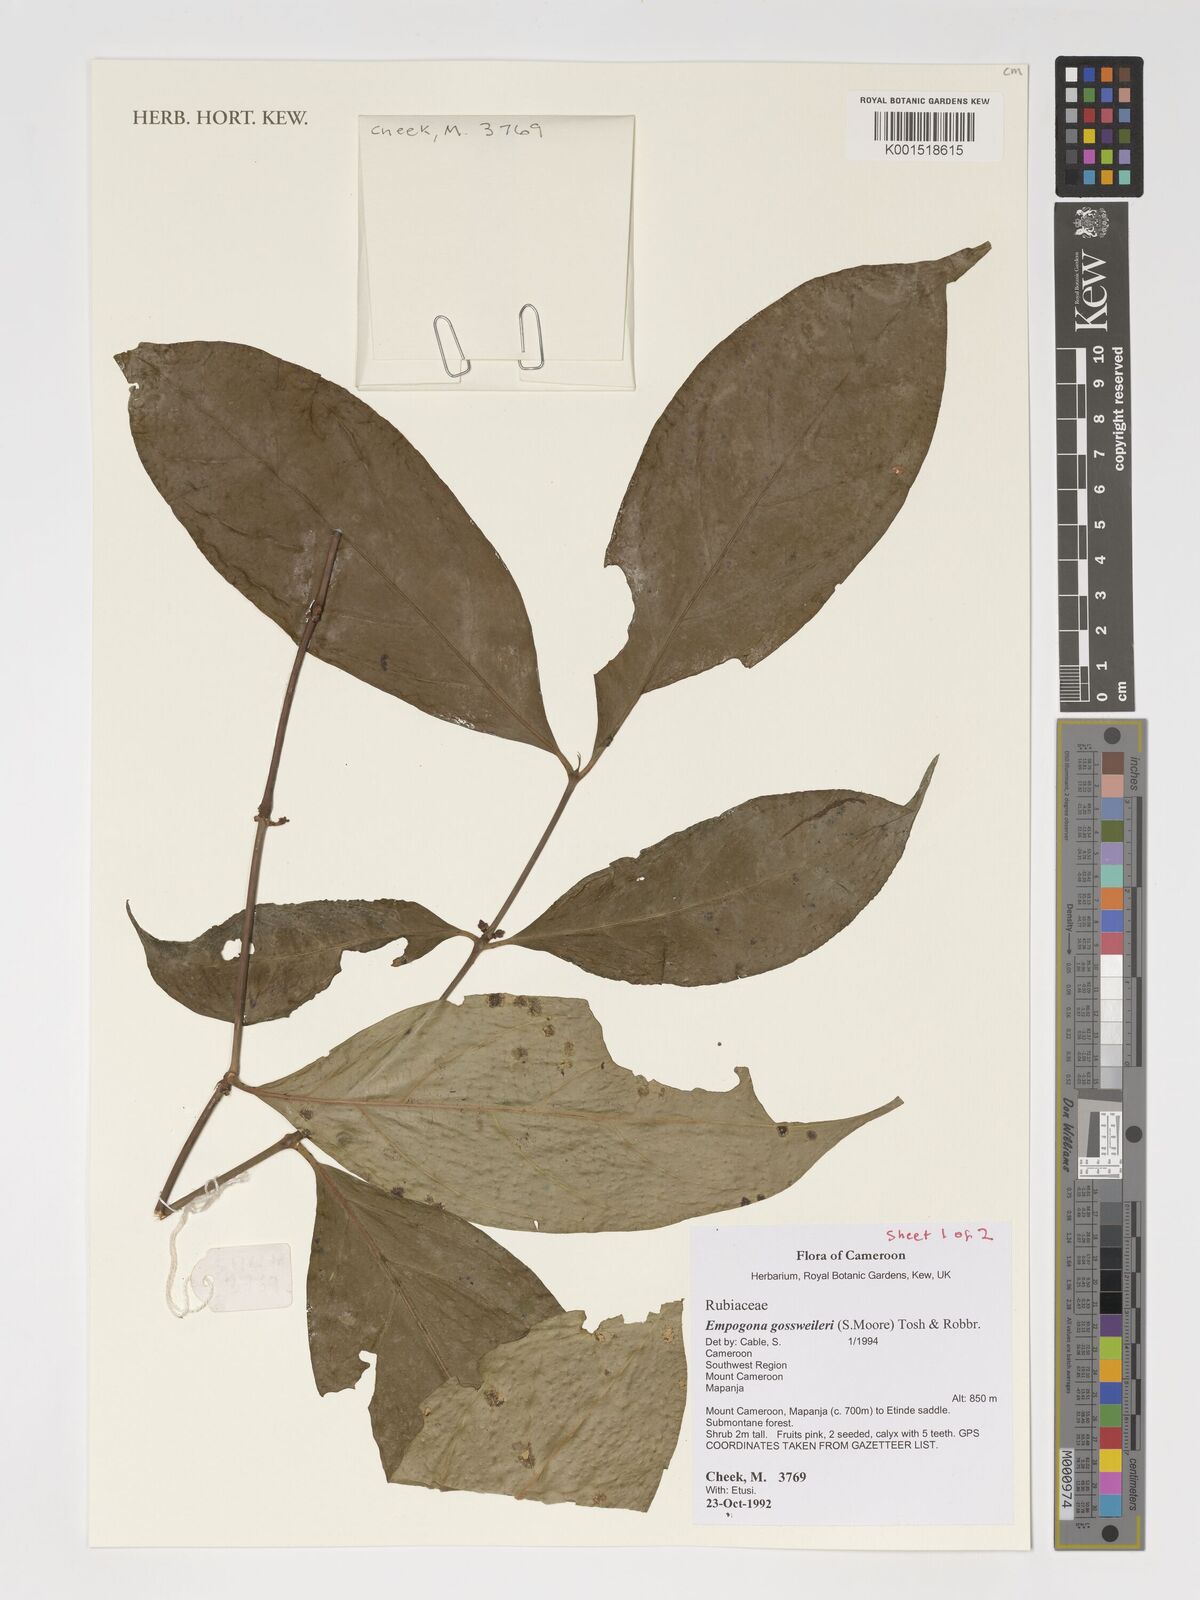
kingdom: Plantae
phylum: Tracheophyta
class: Magnoliopsida
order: Gentianales
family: Rubiaceae
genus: Empogona
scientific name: Empogona gossweileri
